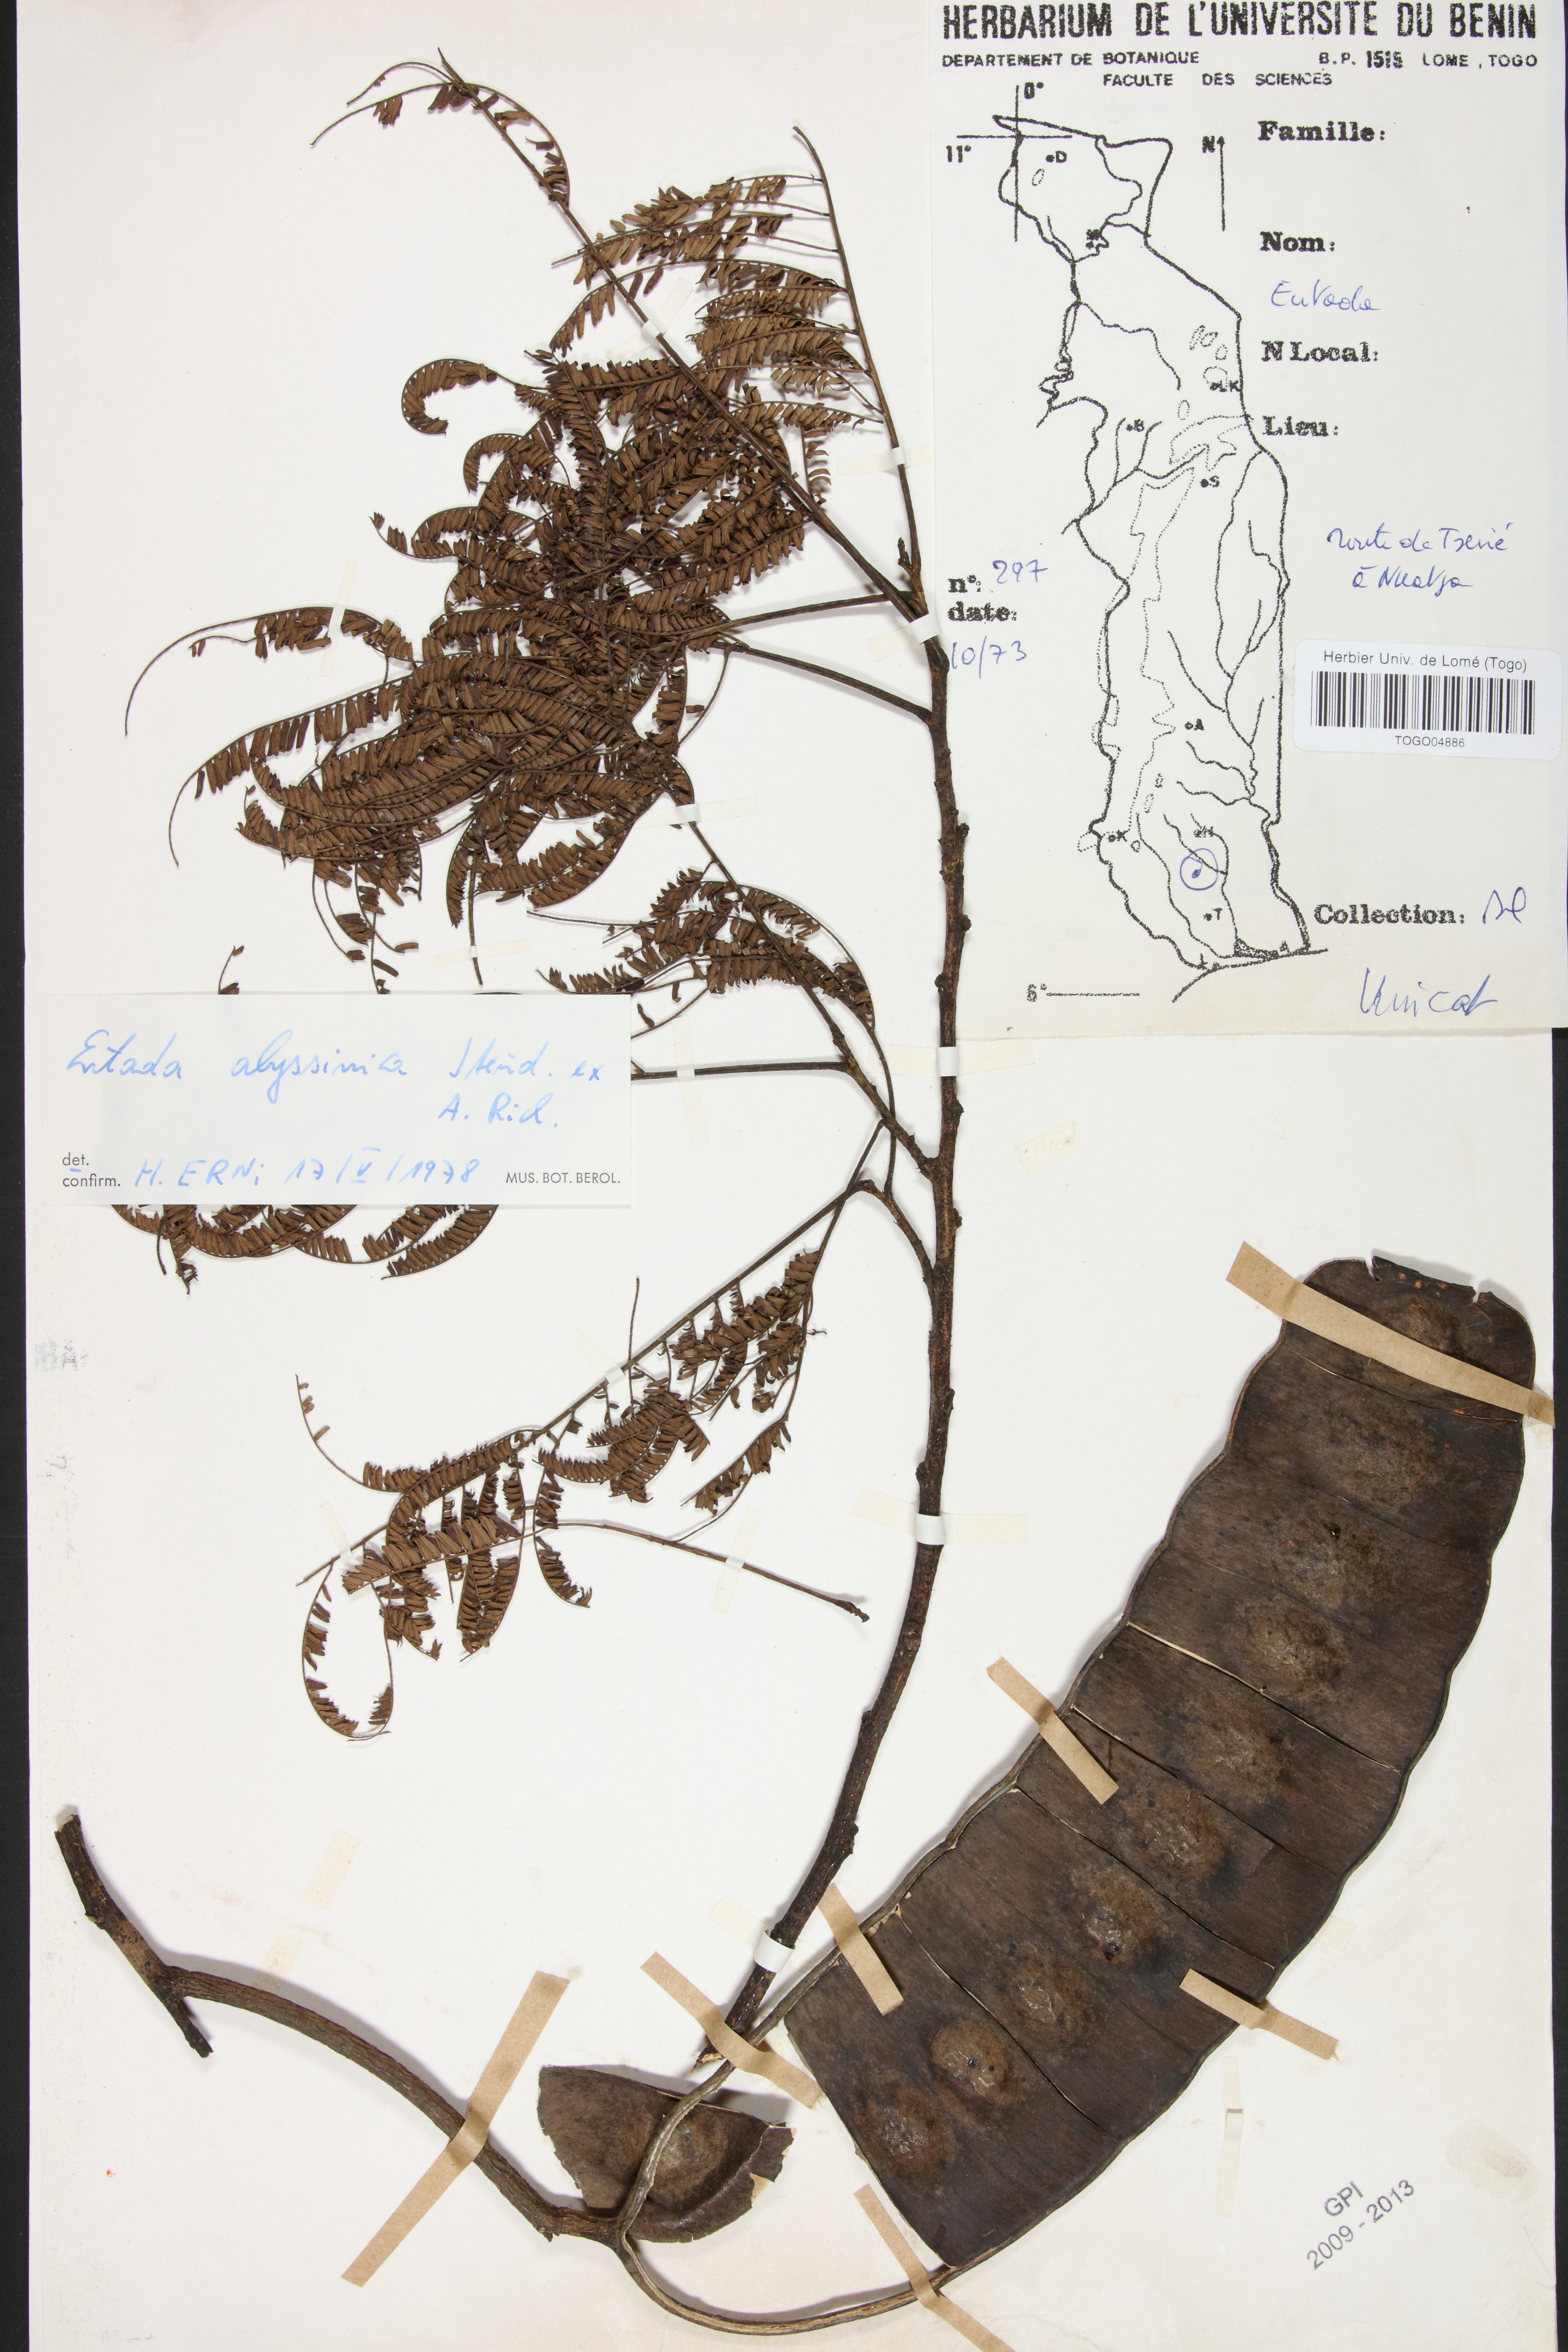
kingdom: Plantae
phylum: Tracheophyta
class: Magnoliopsida
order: Fabales
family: Fabaceae
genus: Entada
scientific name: Entada abyssinica
